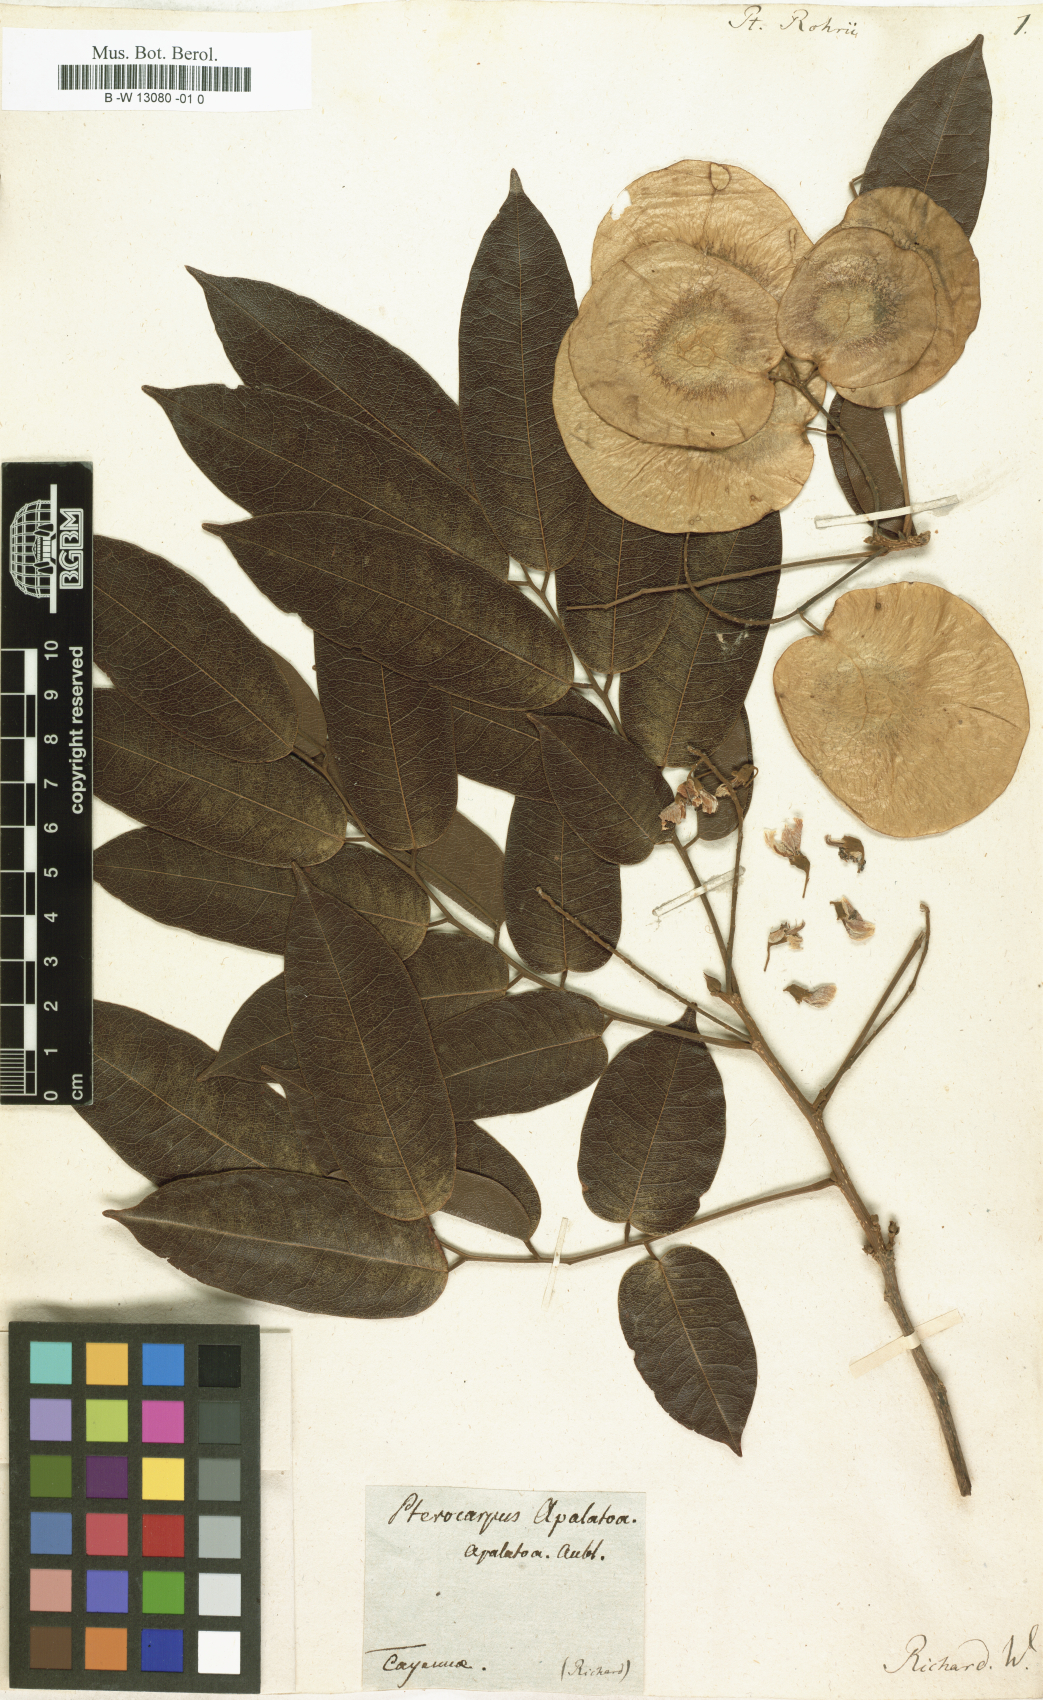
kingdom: Plantae
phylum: Tracheophyta
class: Magnoliopsida
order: Fabales
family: Fabaceae
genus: Pterocarpus
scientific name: Pterocarpus rohrii
